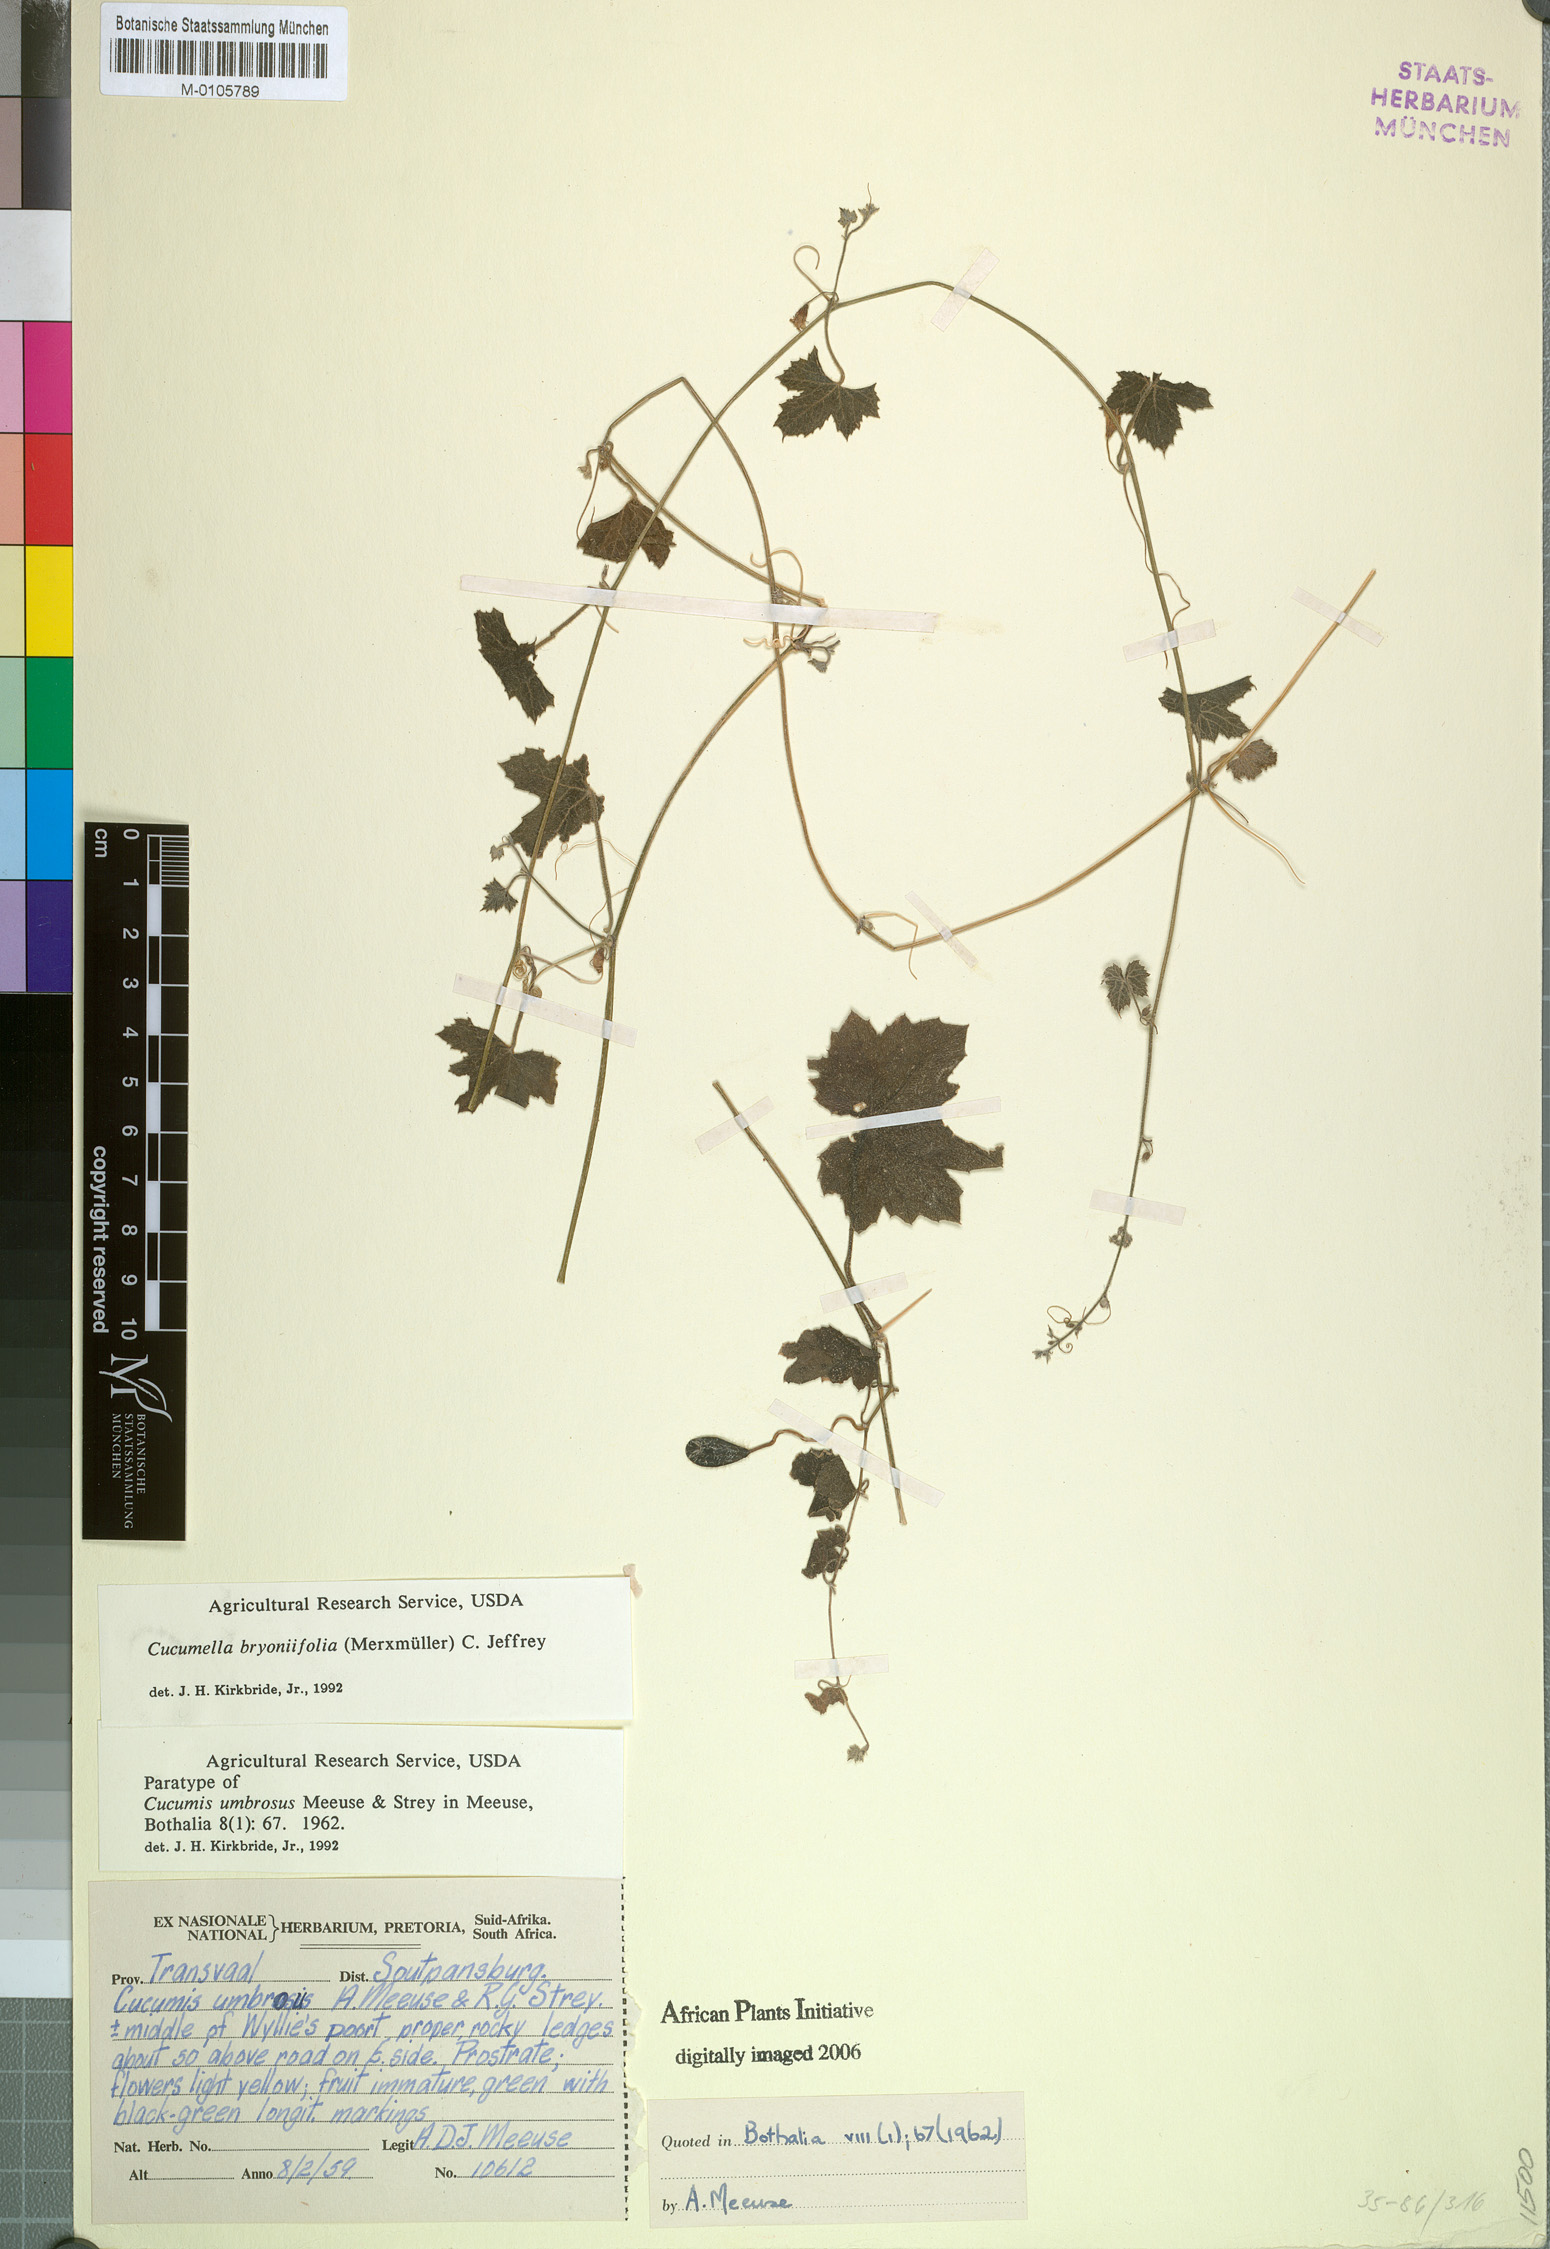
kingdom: Plantae
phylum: Tracheophyta
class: Magnoliopsida
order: Cucurbitales
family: Cucurbitaceae
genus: Cucumis
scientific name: Cucumis bryoniifolius
